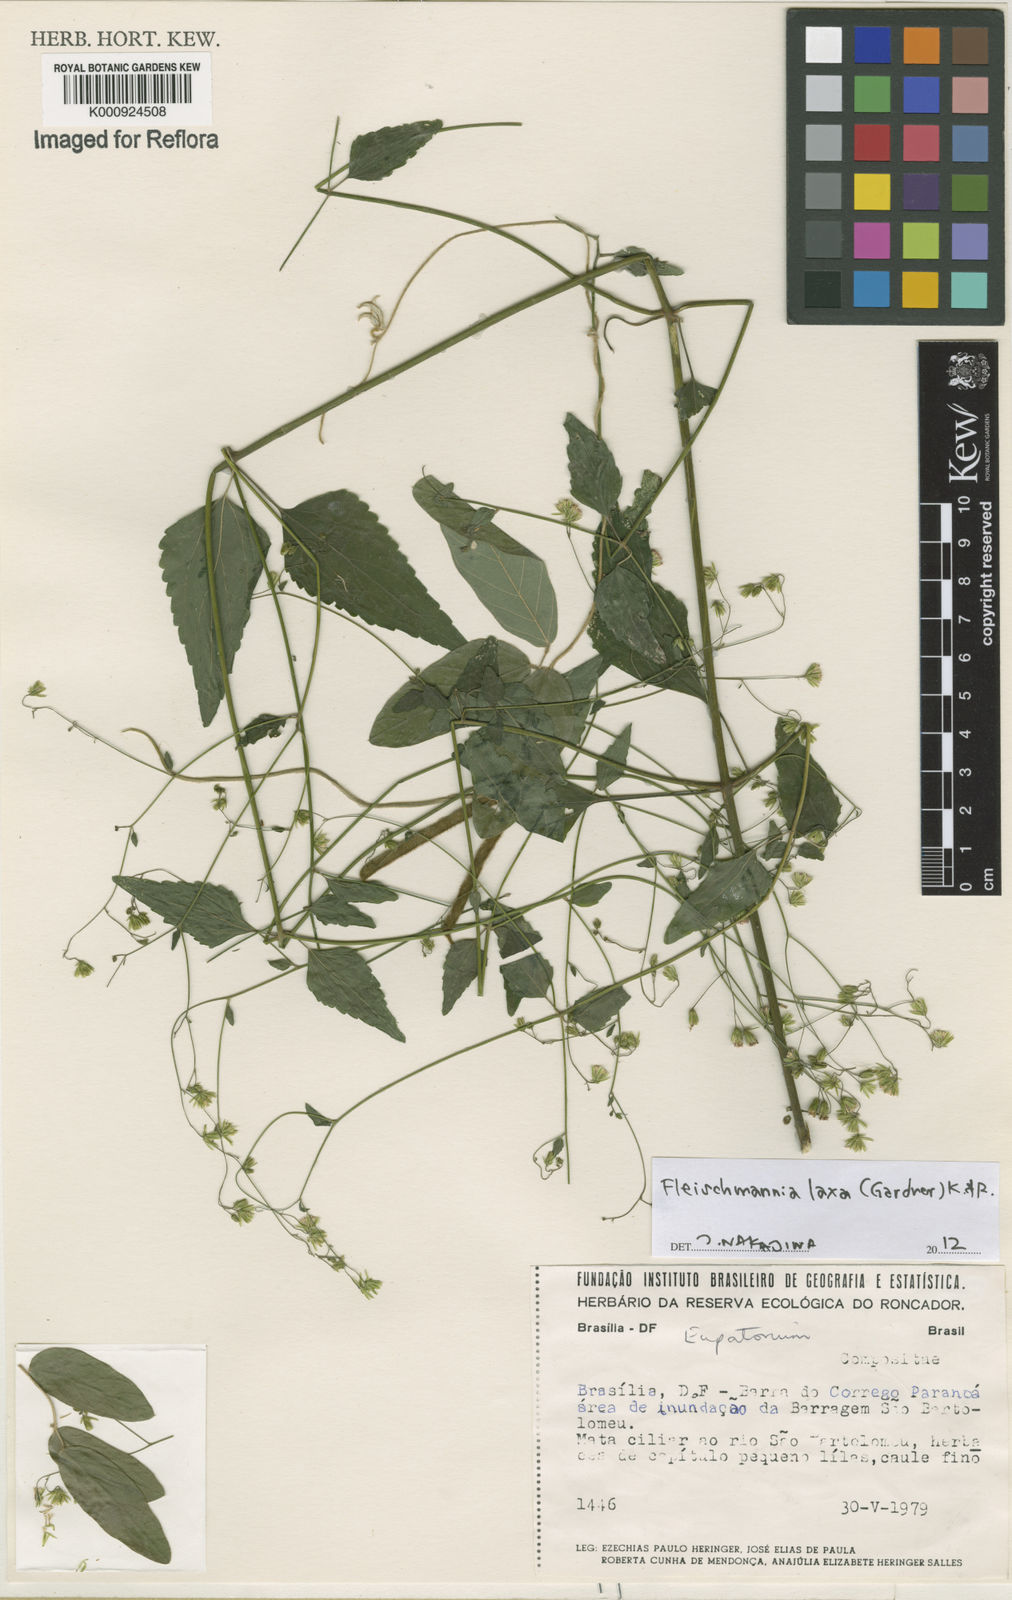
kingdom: Plantae
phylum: Tracheophyta
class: Magnoliopsida
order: Asterales
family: Asteraceae
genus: Fleischmannia
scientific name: Fleischmannia laxa
